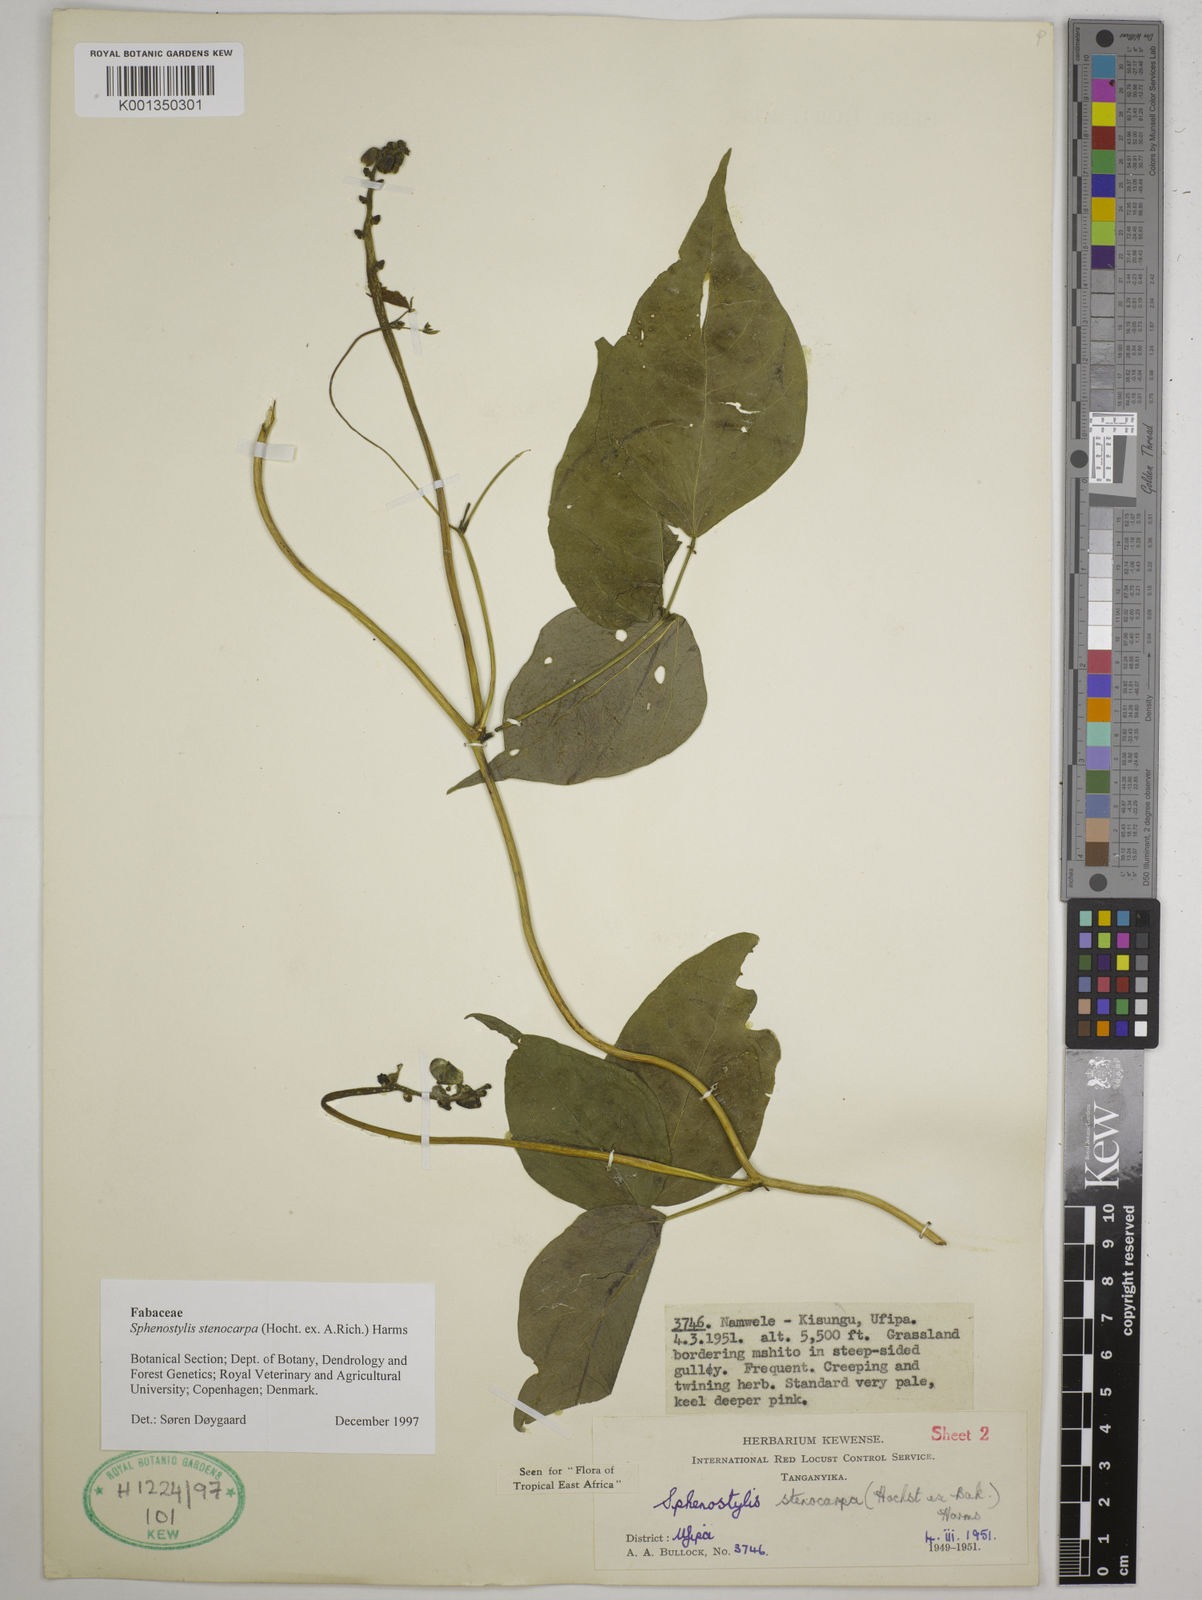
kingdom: Plantae
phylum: Tracheophyta
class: Magnoliopsida
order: Fabales
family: Fabaceae
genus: Sphenostylis
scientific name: Sphenostylis stenocarpa
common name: Yam-pea
